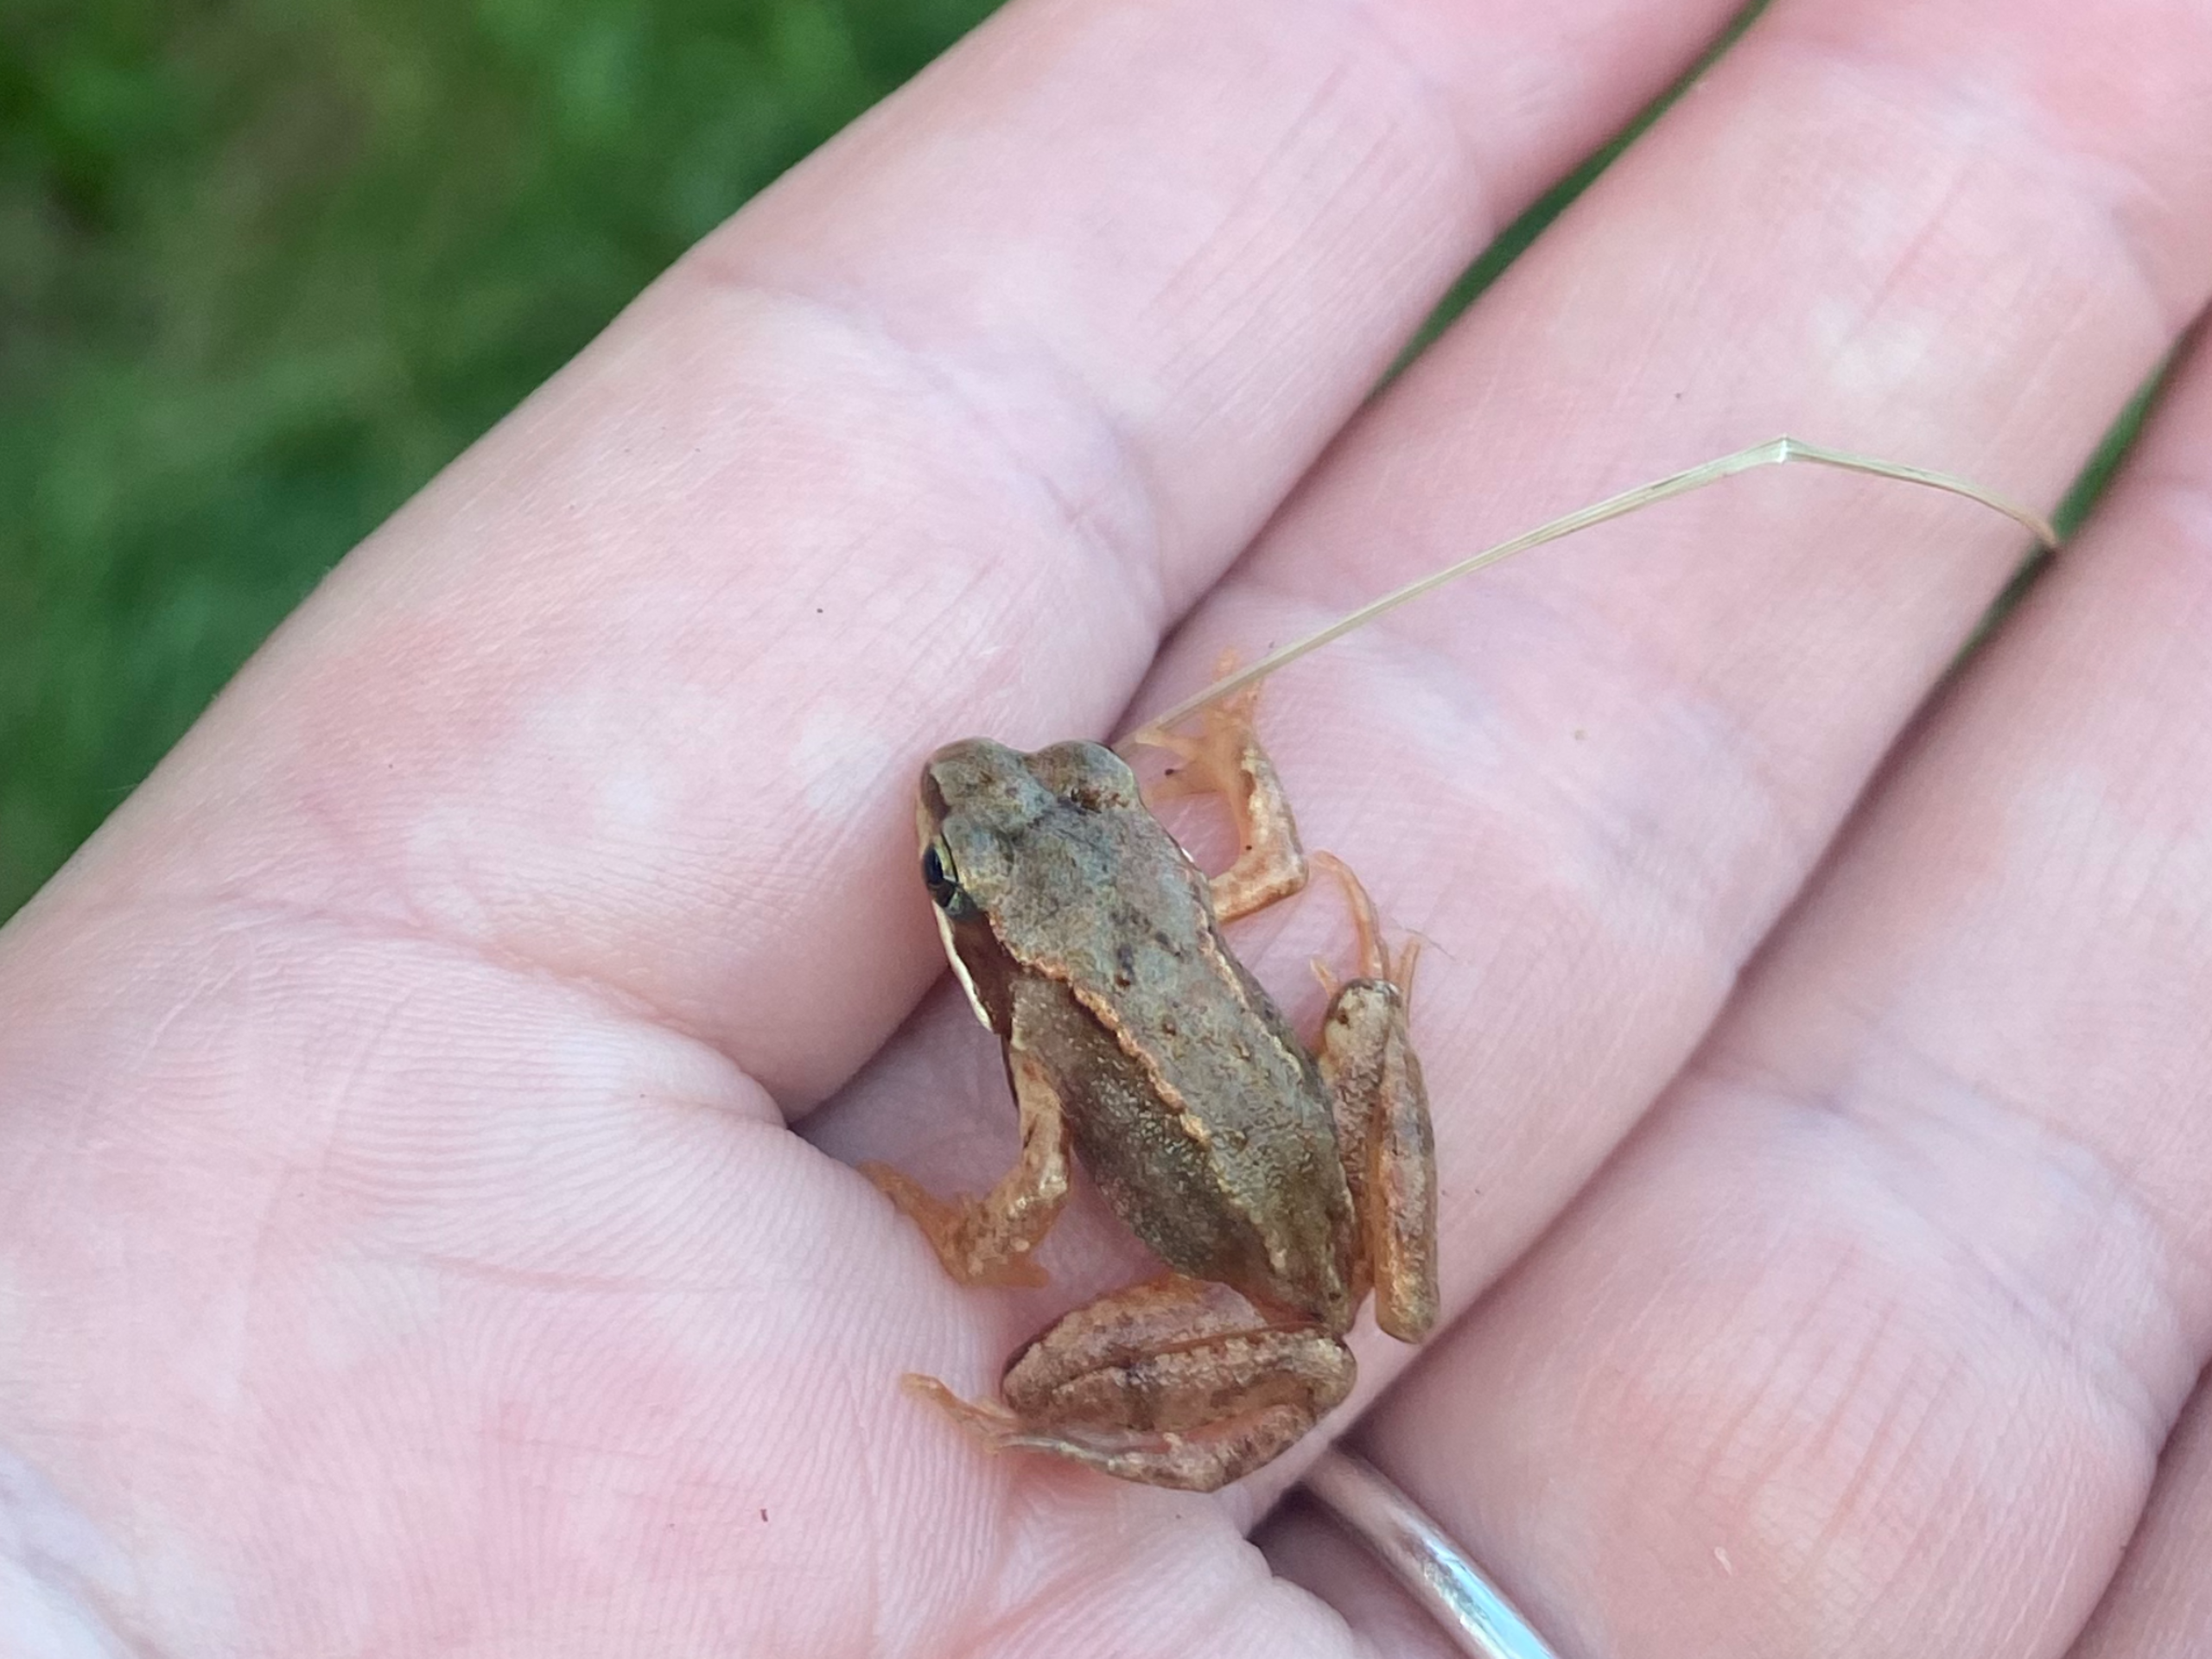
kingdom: Animalia
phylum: Chordata
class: Amphibia
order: Anura
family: Ranidae
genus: Rana
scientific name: Rana temporaria
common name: Butsnudet frø
